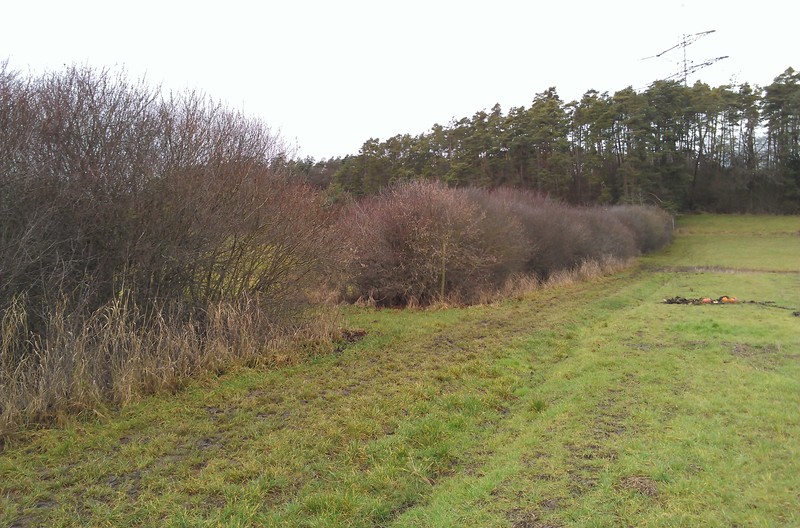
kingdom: Fungi
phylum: Basidiomycota
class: Agaricomycetes
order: Corticiales
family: Corticiaceae
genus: Erythricium
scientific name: Erythricium aurantiacum
